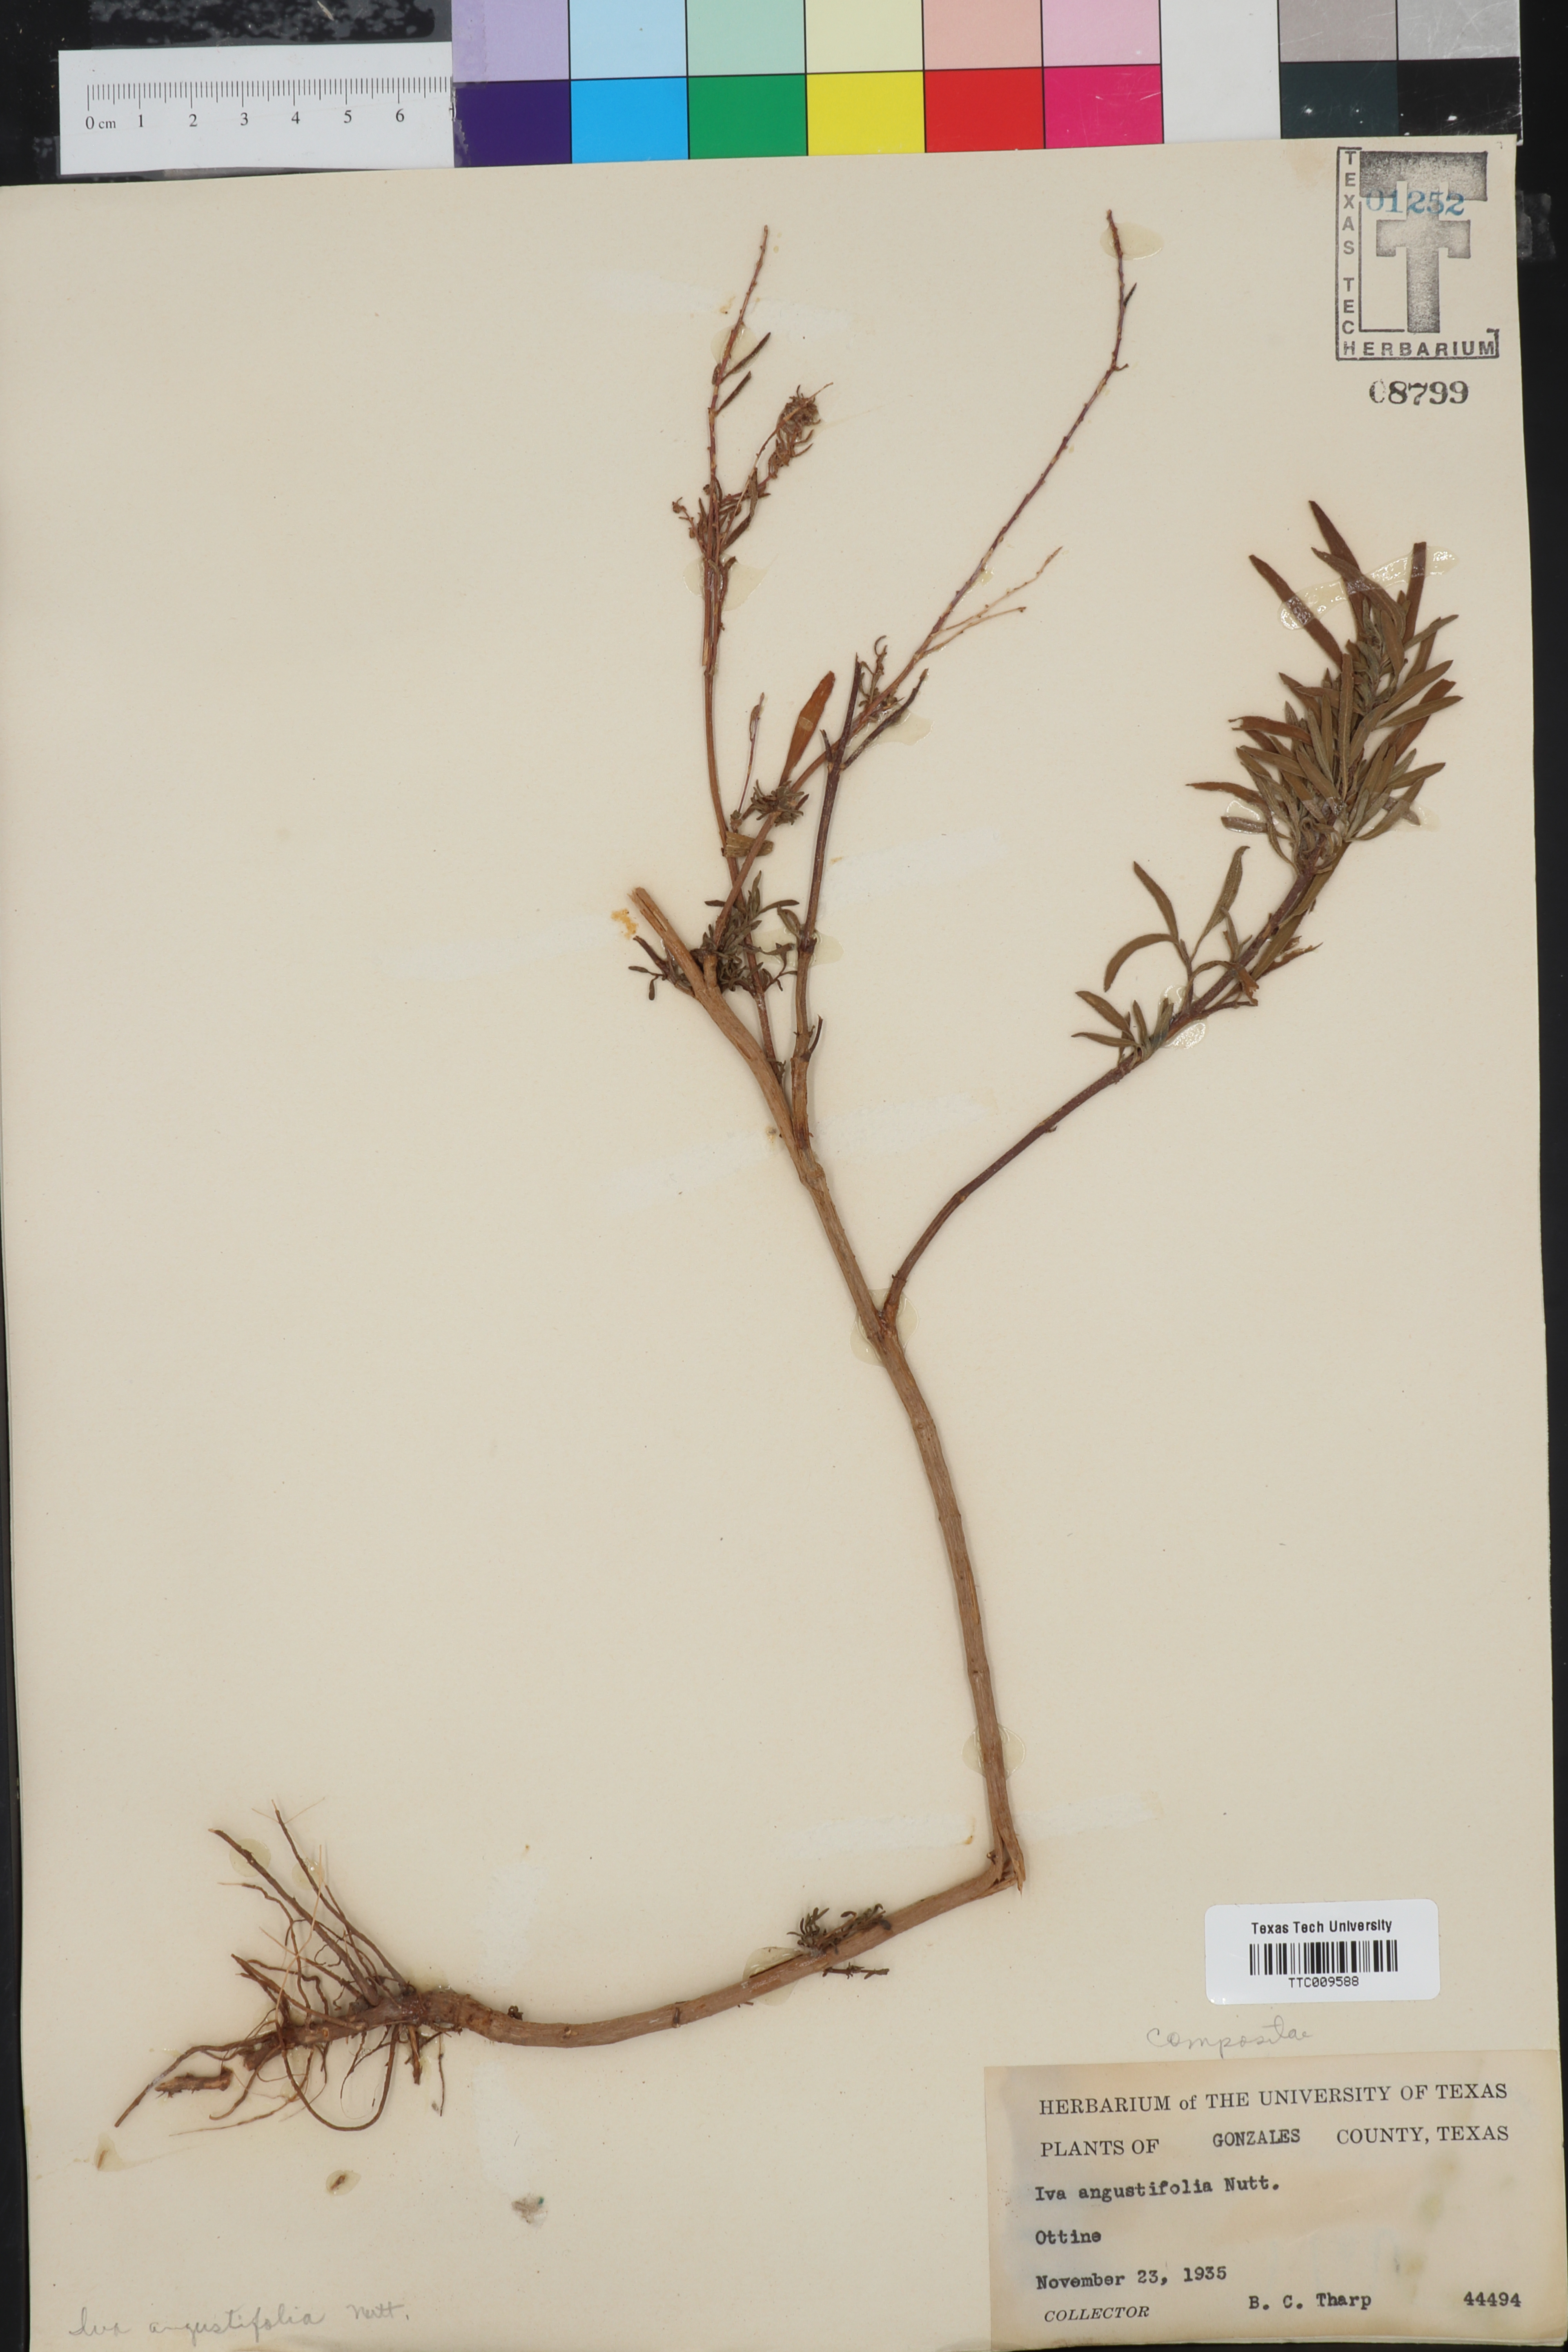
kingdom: Plantae
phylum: Tracheophyta
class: Magnoliopsida
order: Asterales
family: Asteraceae
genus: Iva
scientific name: Iva asperifolia
